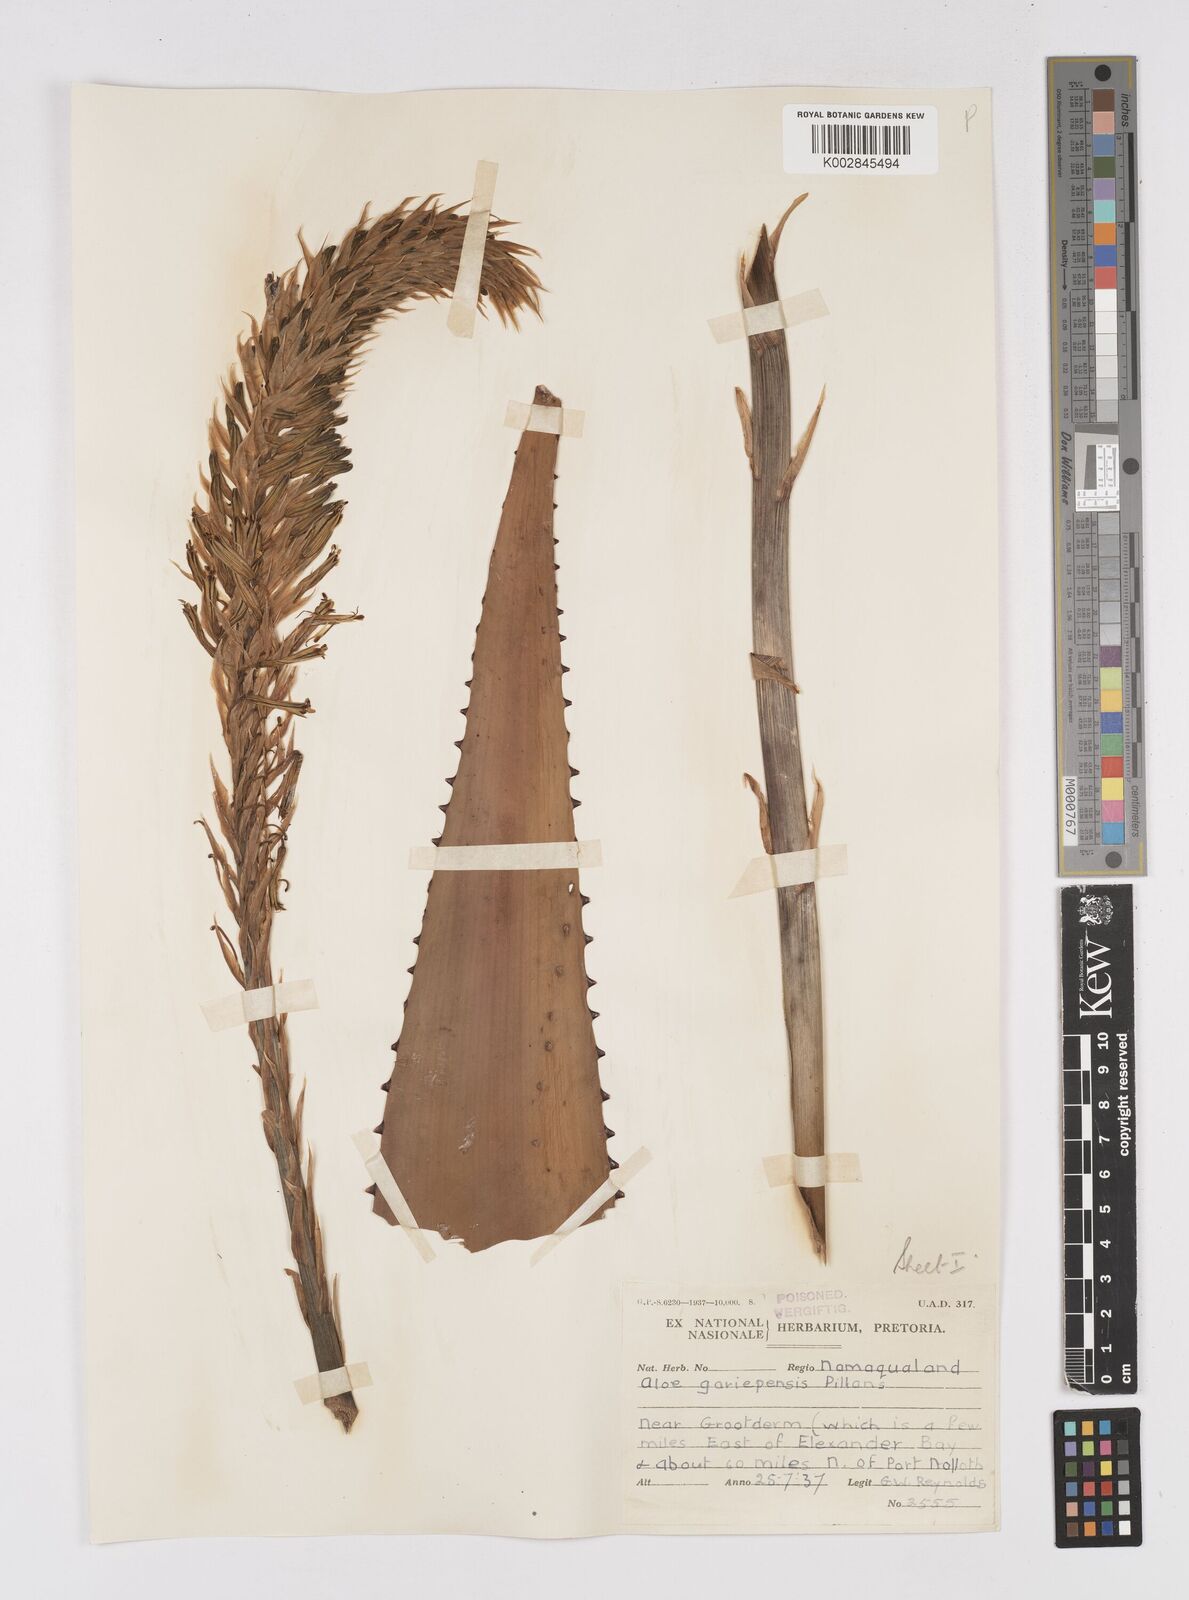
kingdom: Plantae
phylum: Tracheophyta
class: Liliopsida
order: Asparagales
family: Asphodelaceae
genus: Aloe
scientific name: Aloe gariepensis
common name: Orange river aloe
